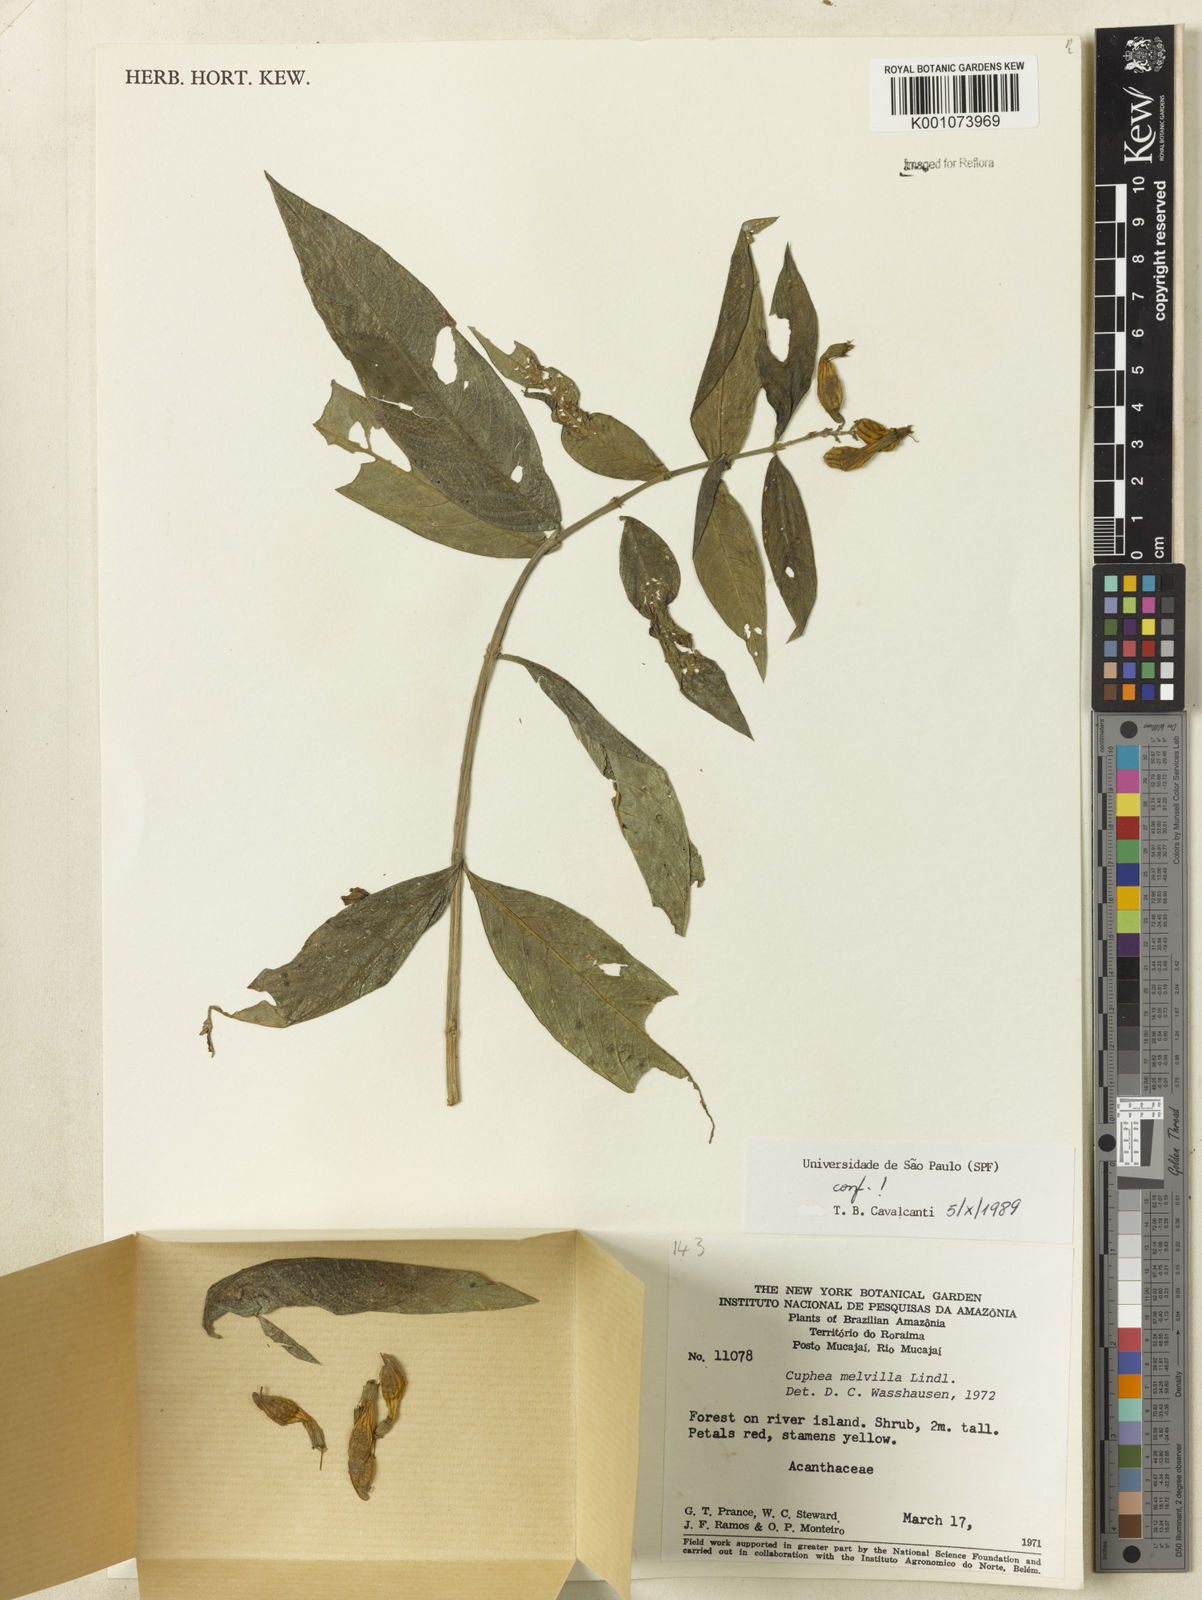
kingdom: Plantae
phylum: Tracheophyta
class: Magnoliopsida
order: Myrtales
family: Lythraceae
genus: Cuphea
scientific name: Cuphea melvilla
